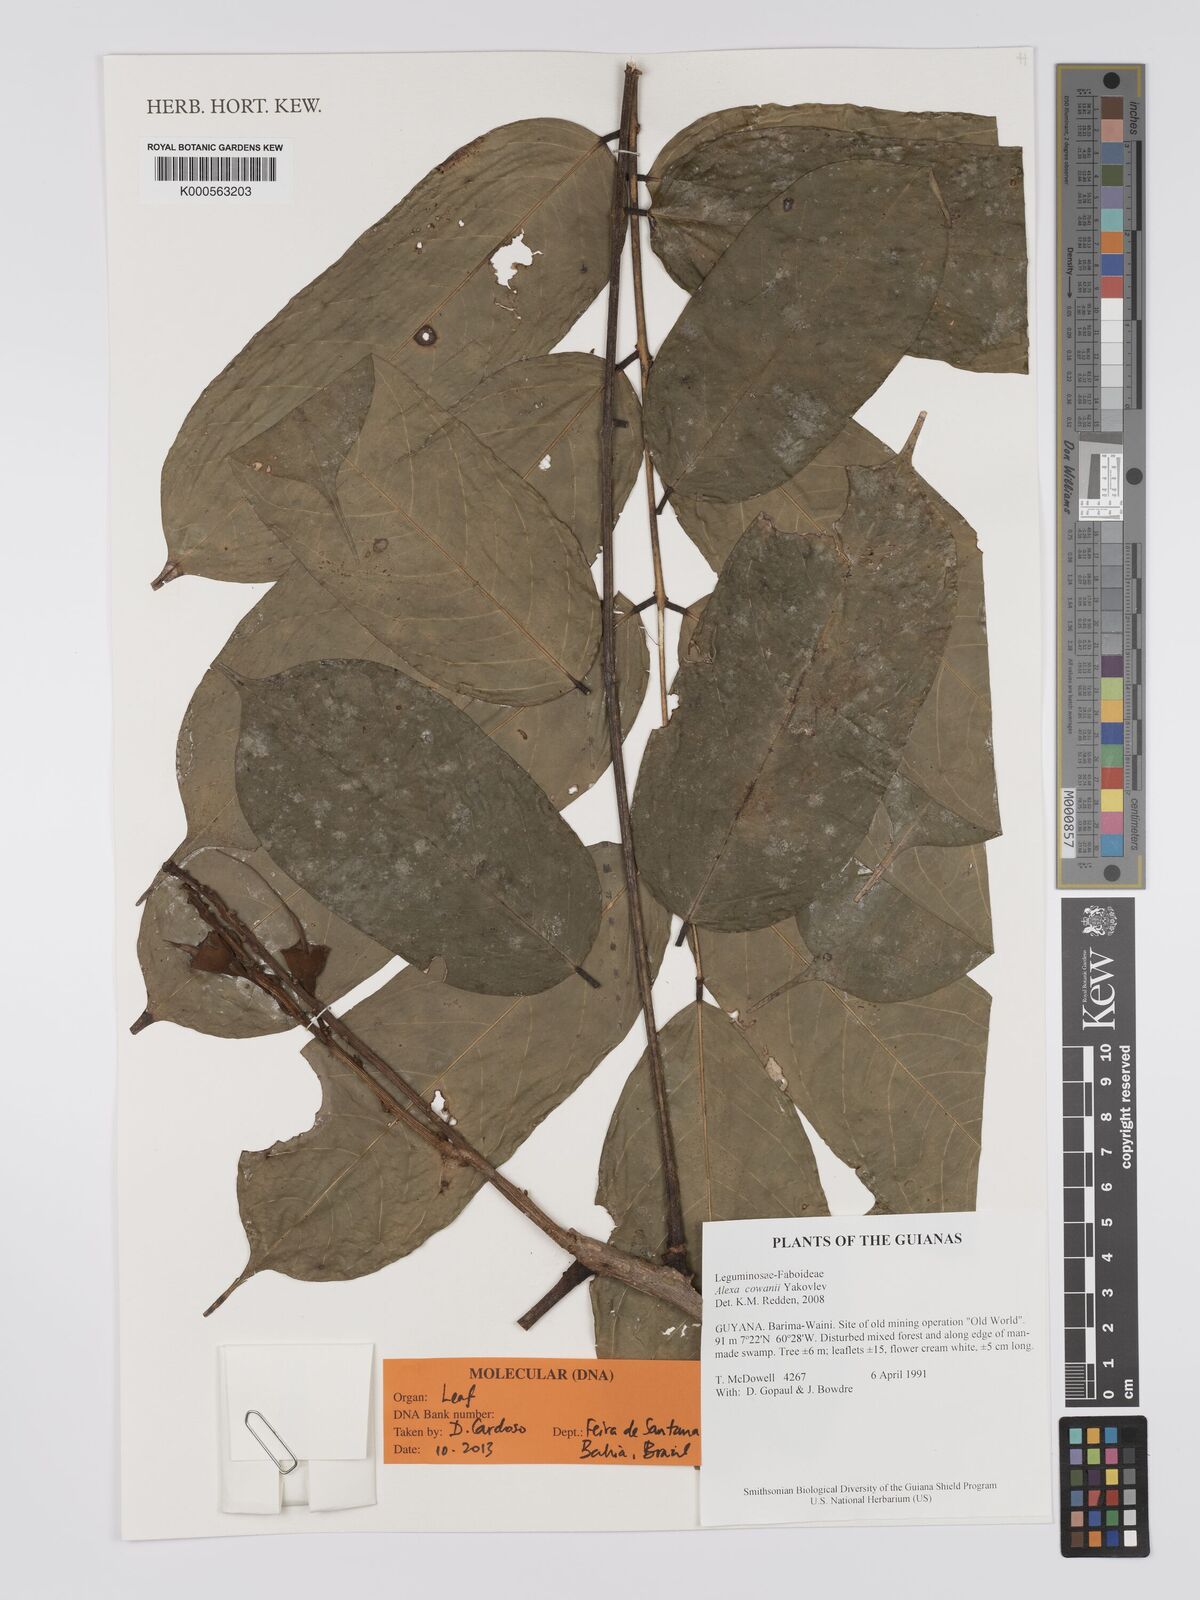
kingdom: Plantae
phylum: Tracheophyta
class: Magnoliopsida
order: Fabales
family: Fabaceae
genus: Alexa
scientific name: Alexa cowanii
